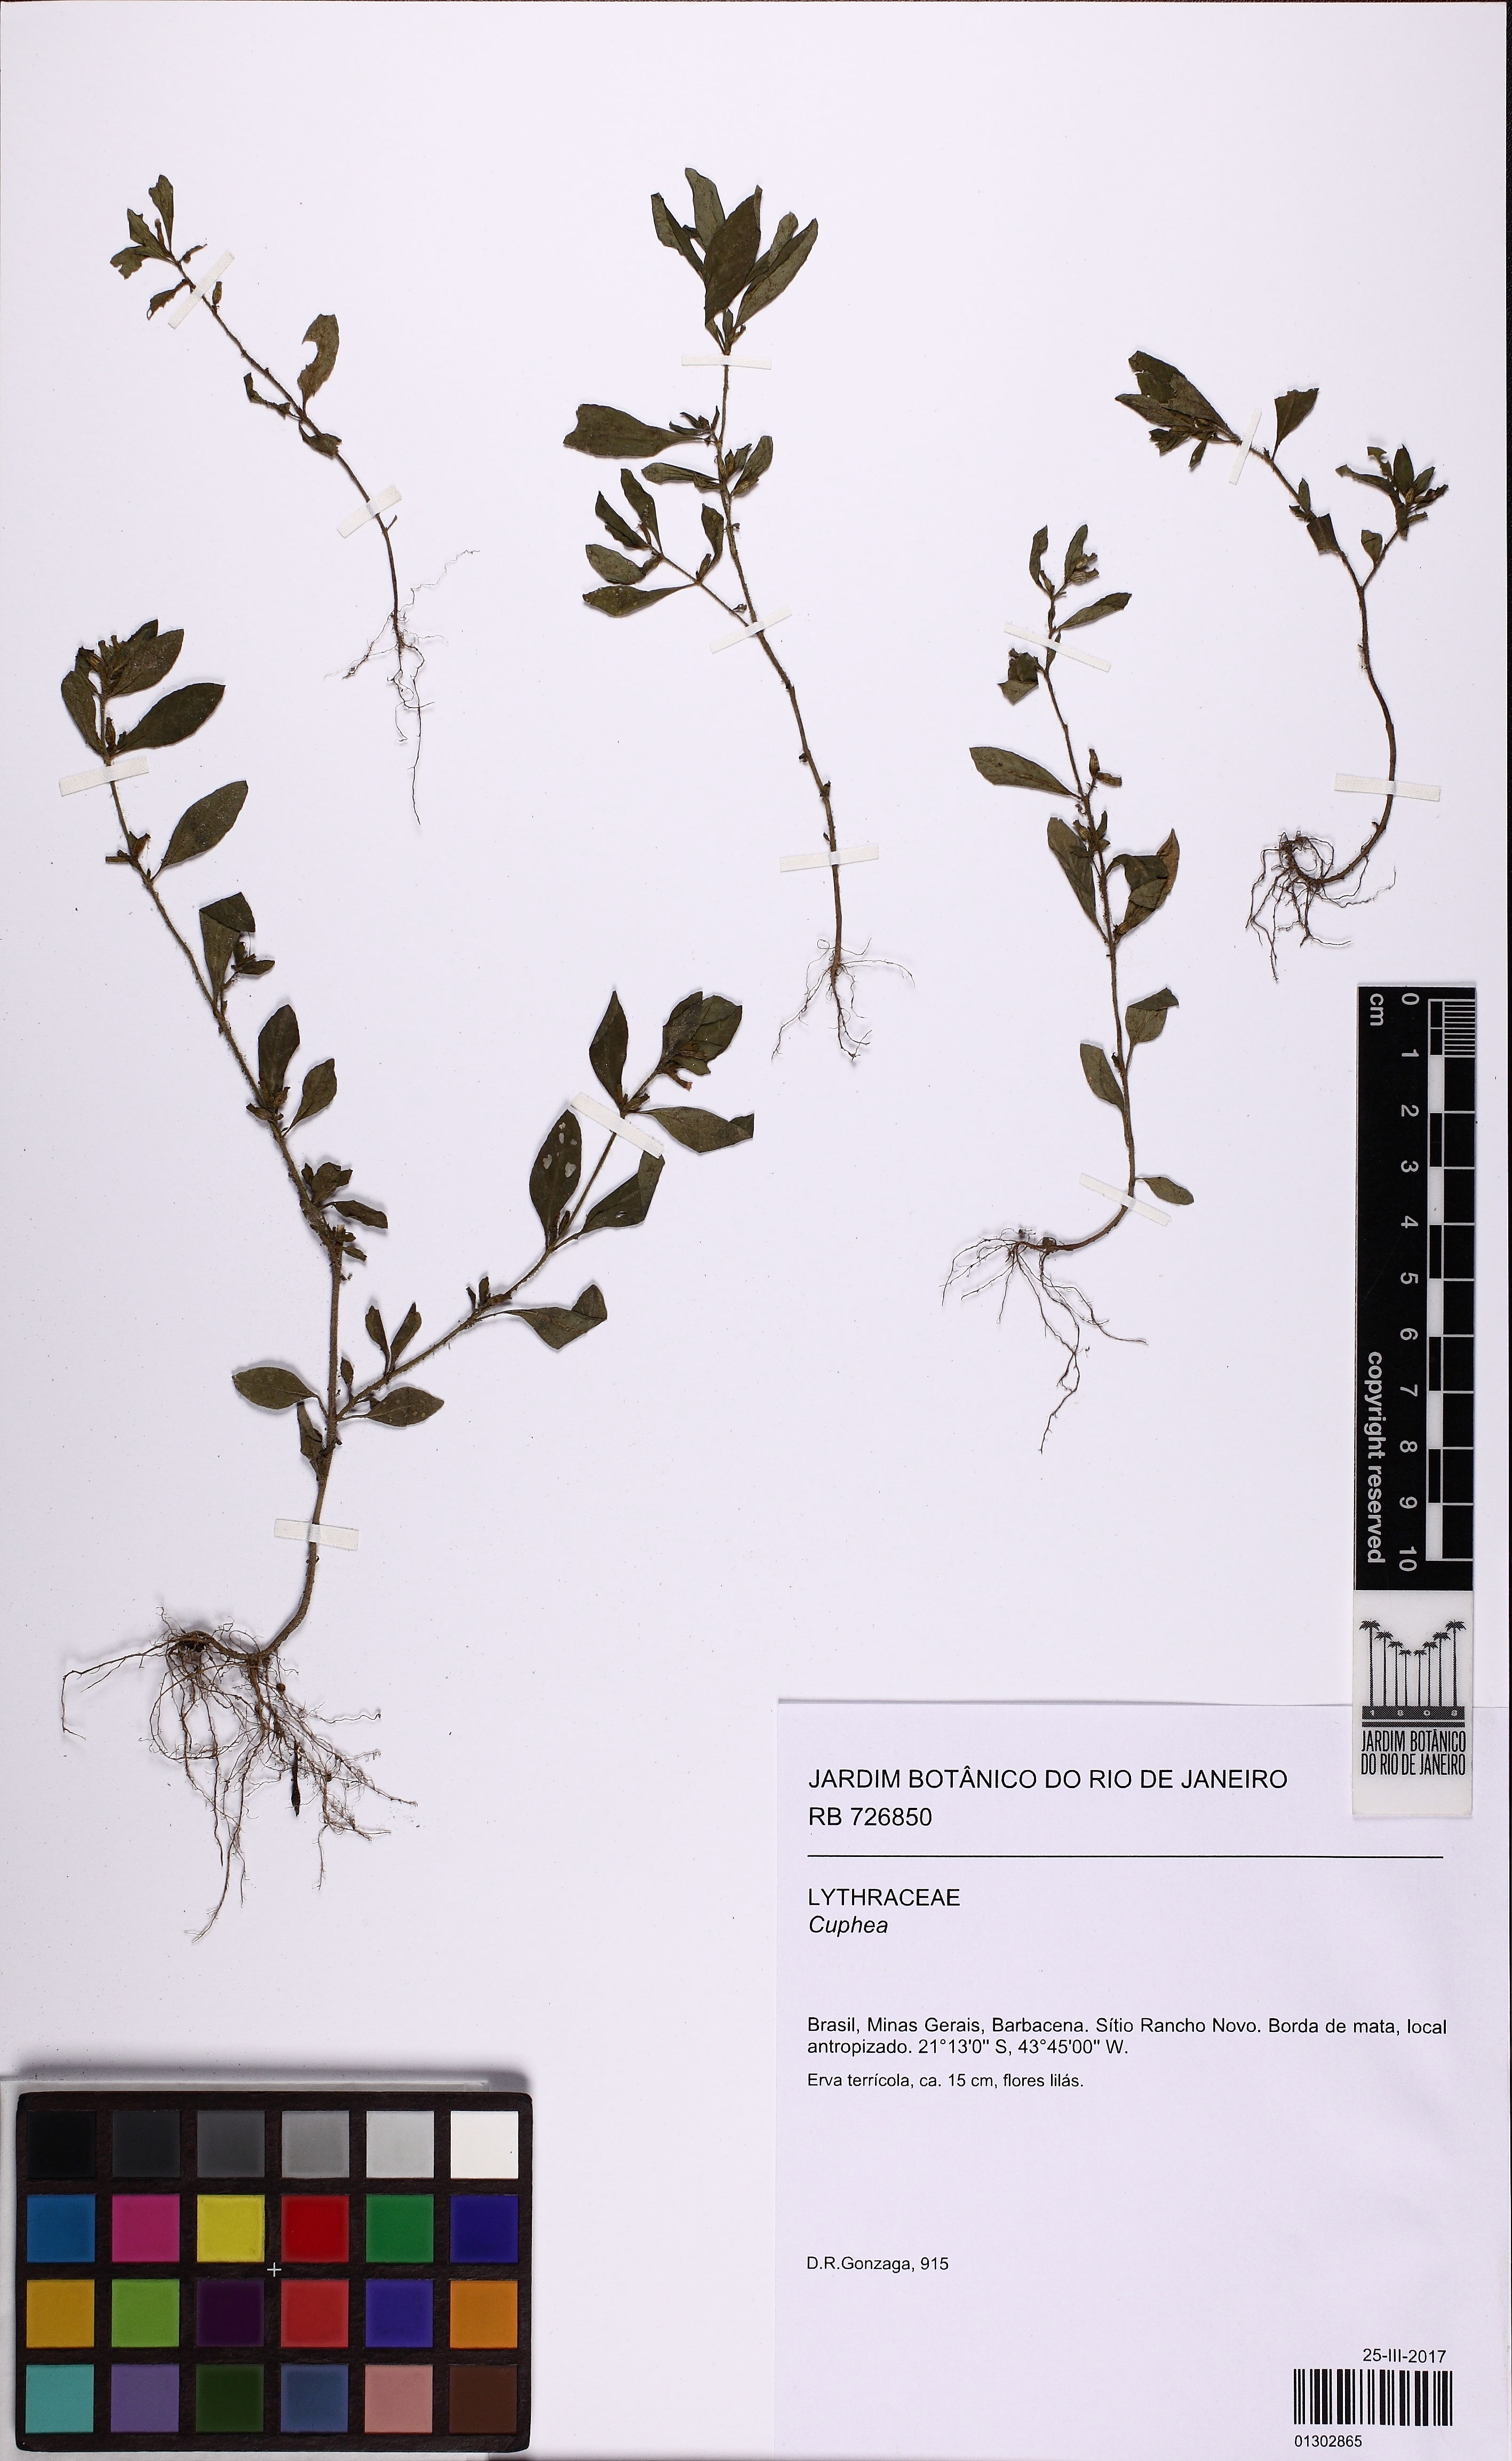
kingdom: Plantae
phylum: Tracheophyta
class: Magnoliopsida
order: Myrtales
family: Lythraceae
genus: Cuphea
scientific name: Cuphea
